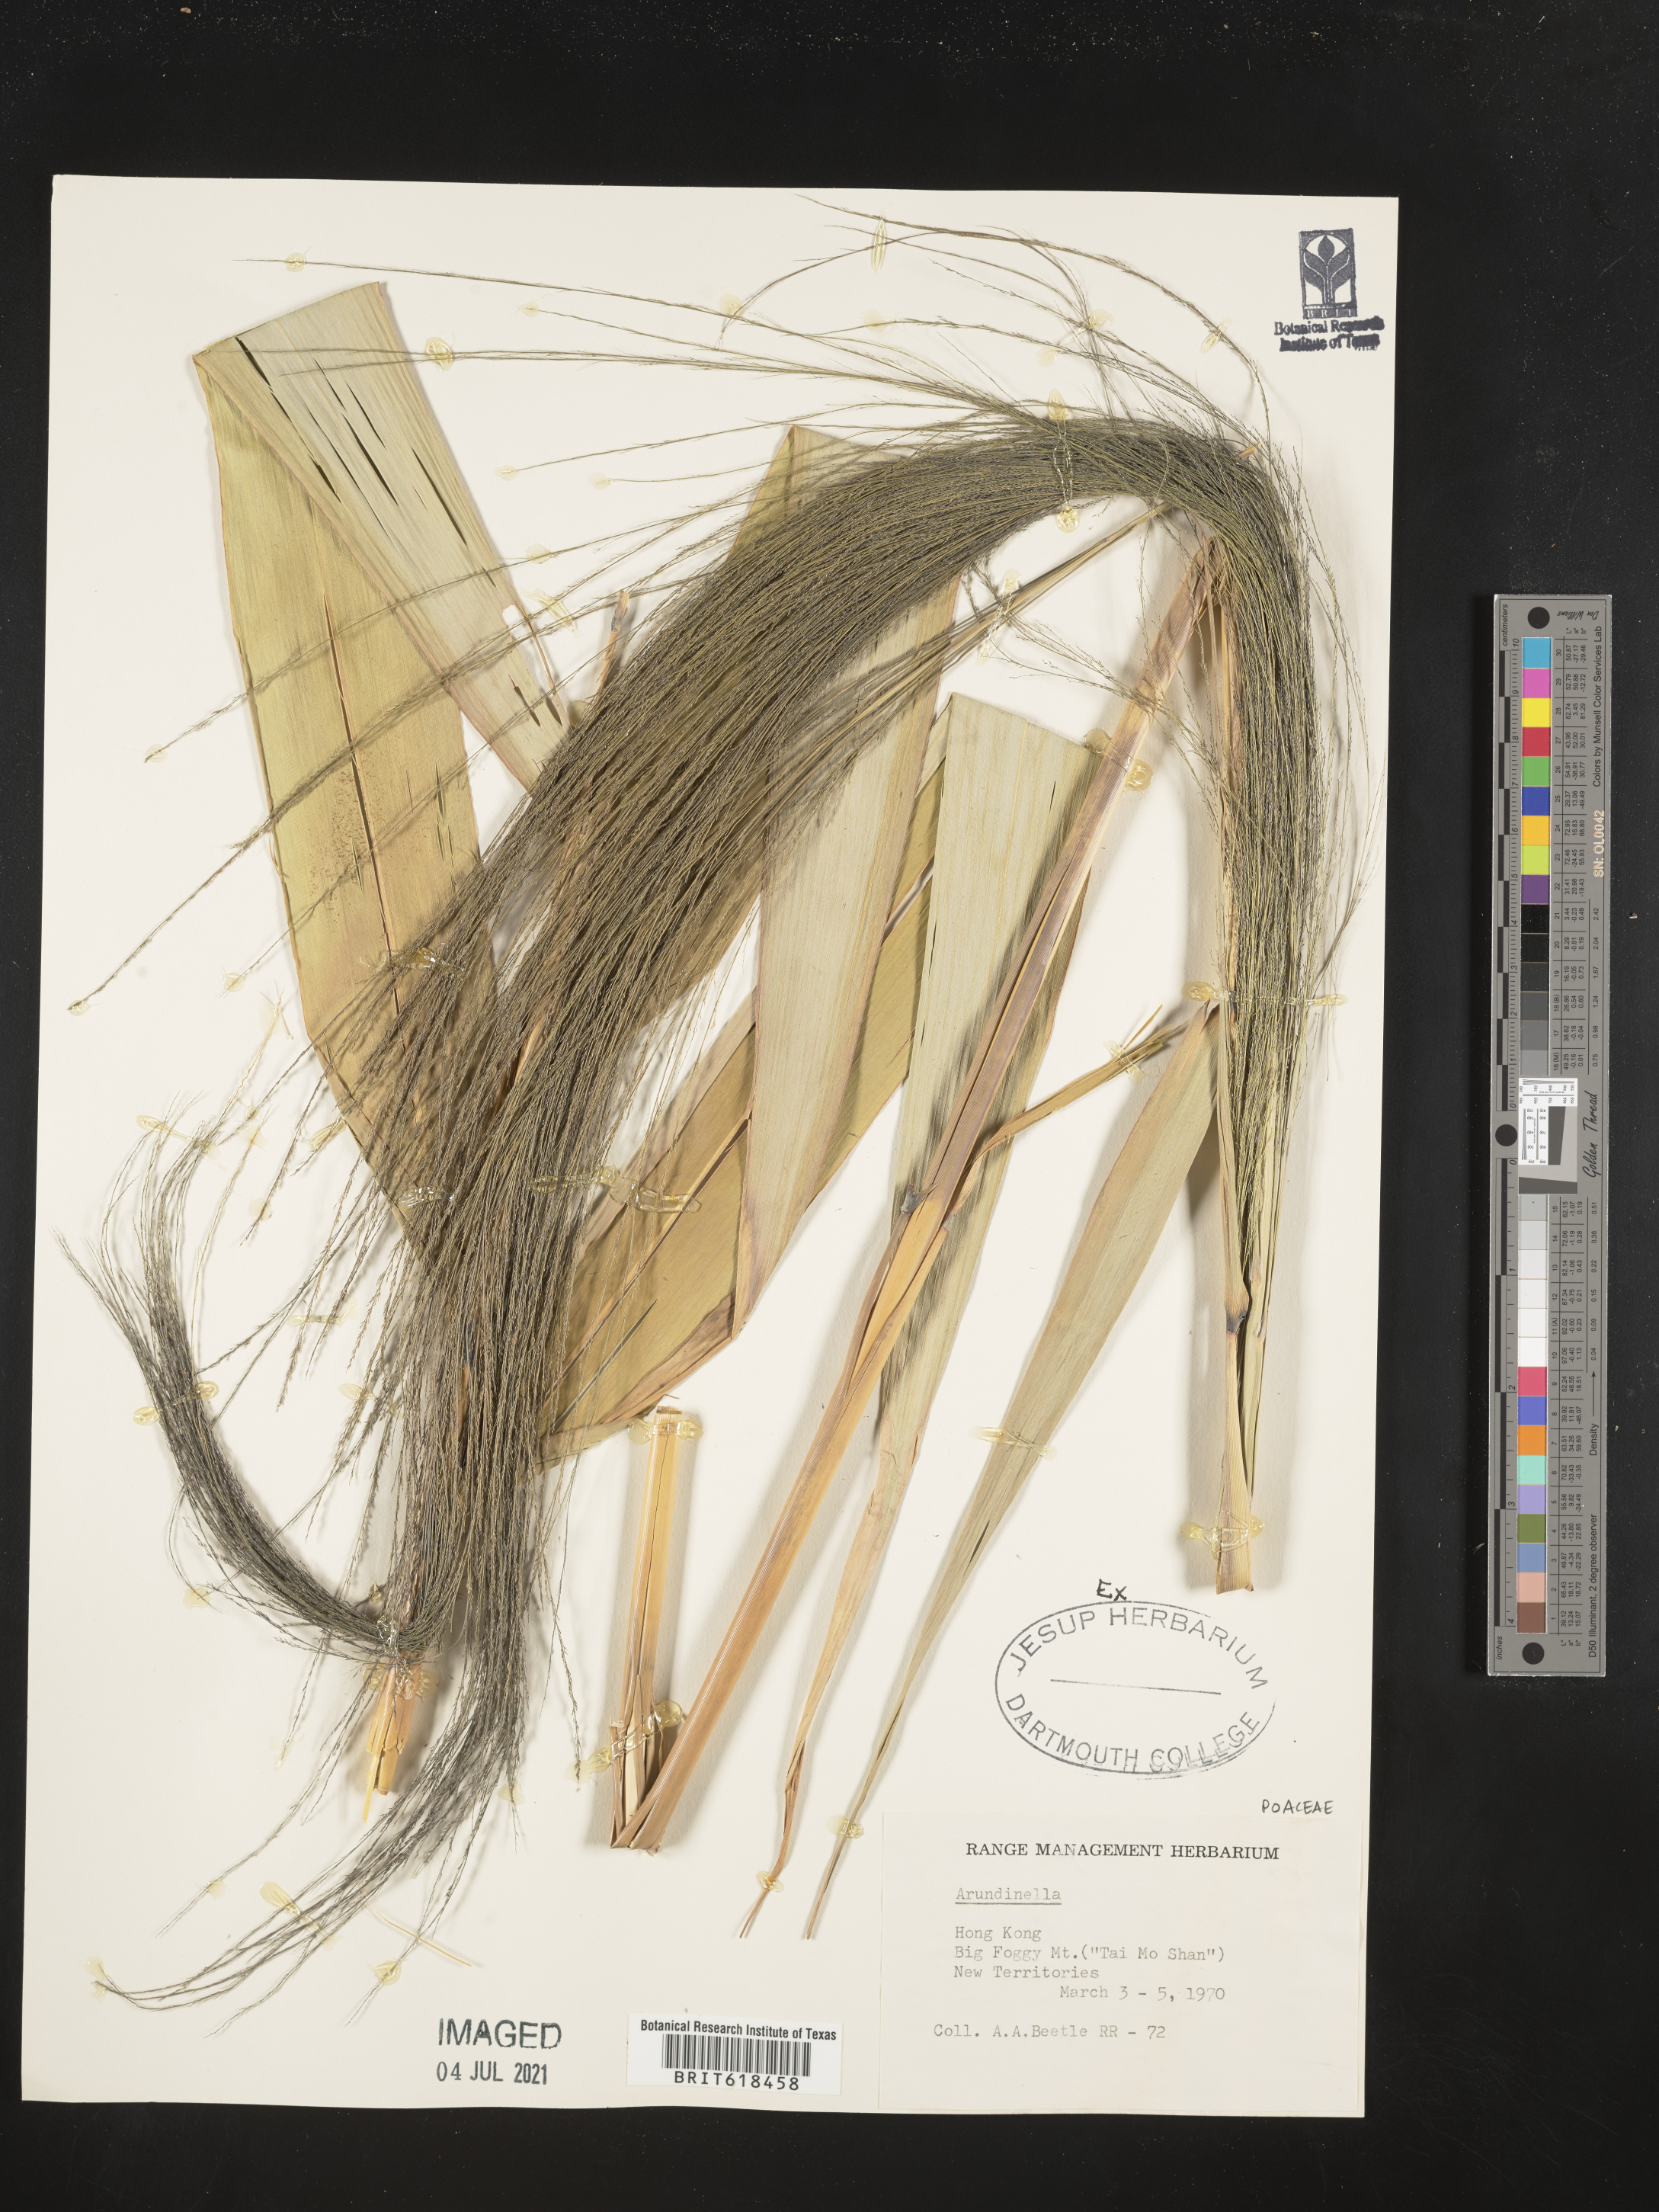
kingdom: Plantae
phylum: Tracheophyta
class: Liliopsida
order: Poales
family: Poaceae
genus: Arundinella
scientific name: Arundinella
